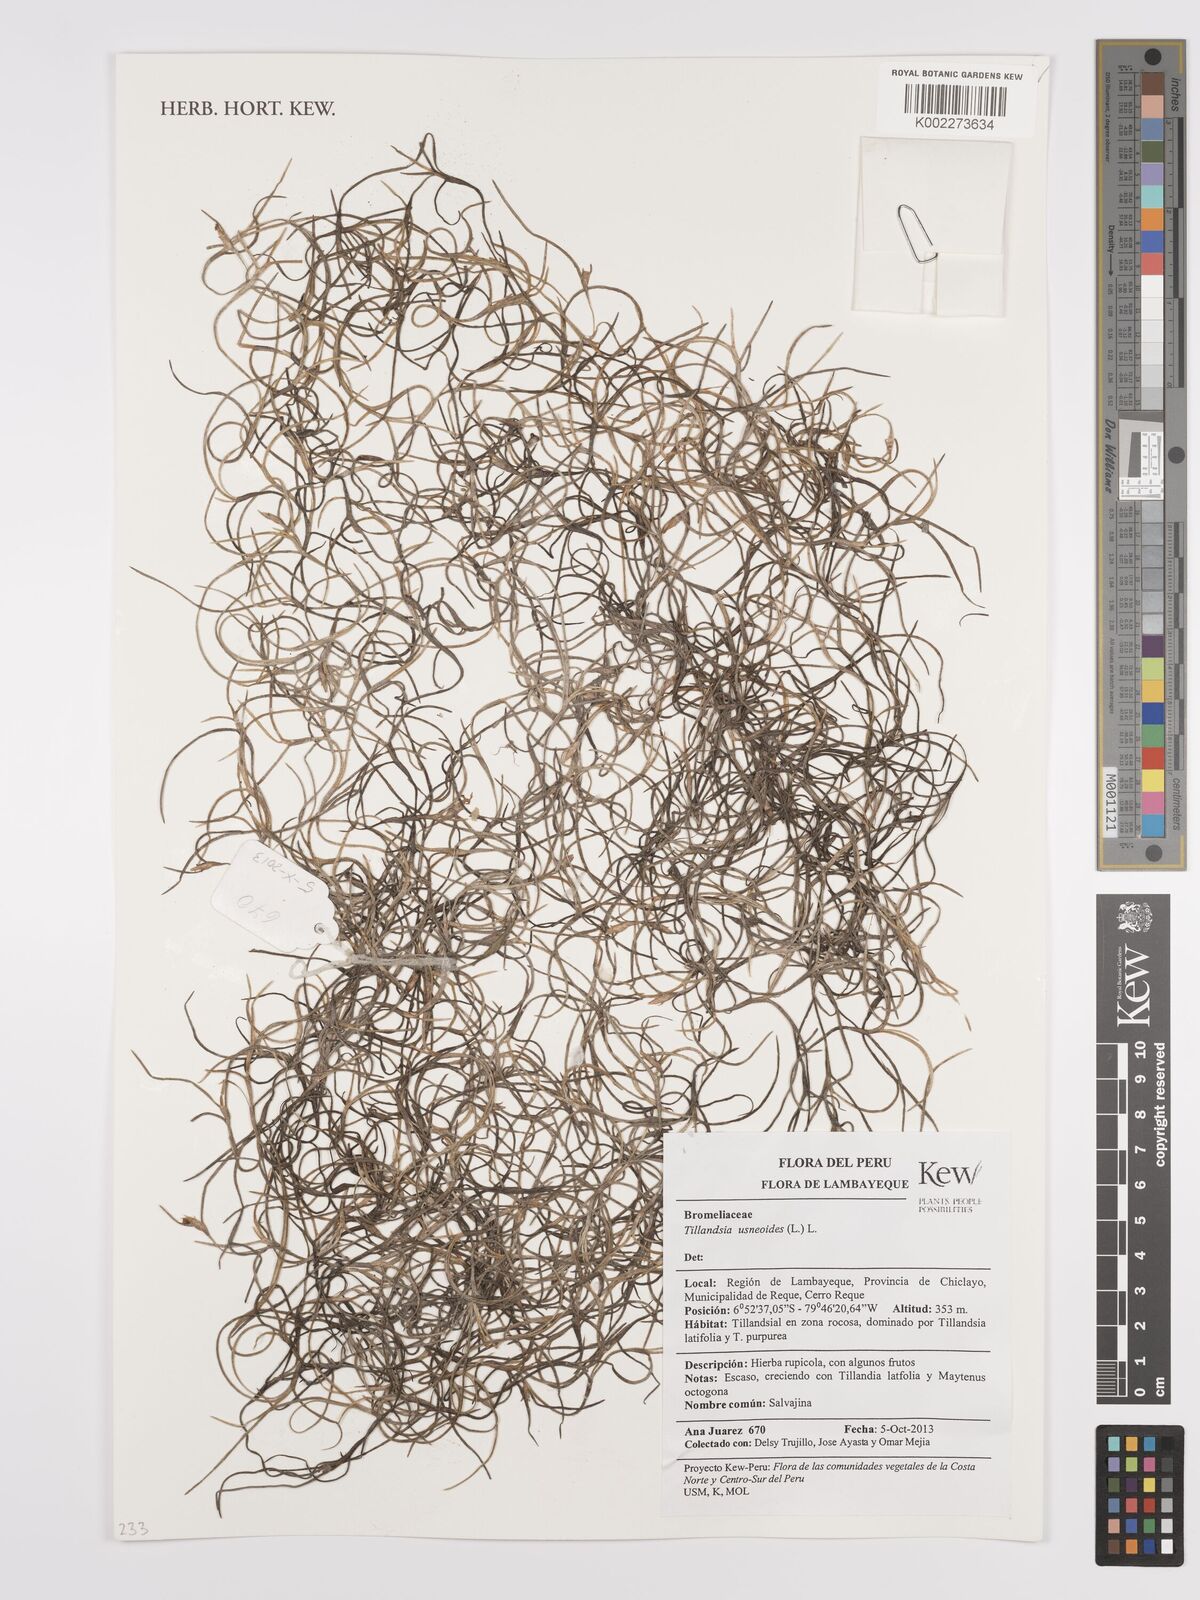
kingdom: Plantae
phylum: Tracheophyta
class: Liliopsida
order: Poales
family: Bromeliaceae
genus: Tillandsia
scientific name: Tillandsia usneoides
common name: Spanish moss
